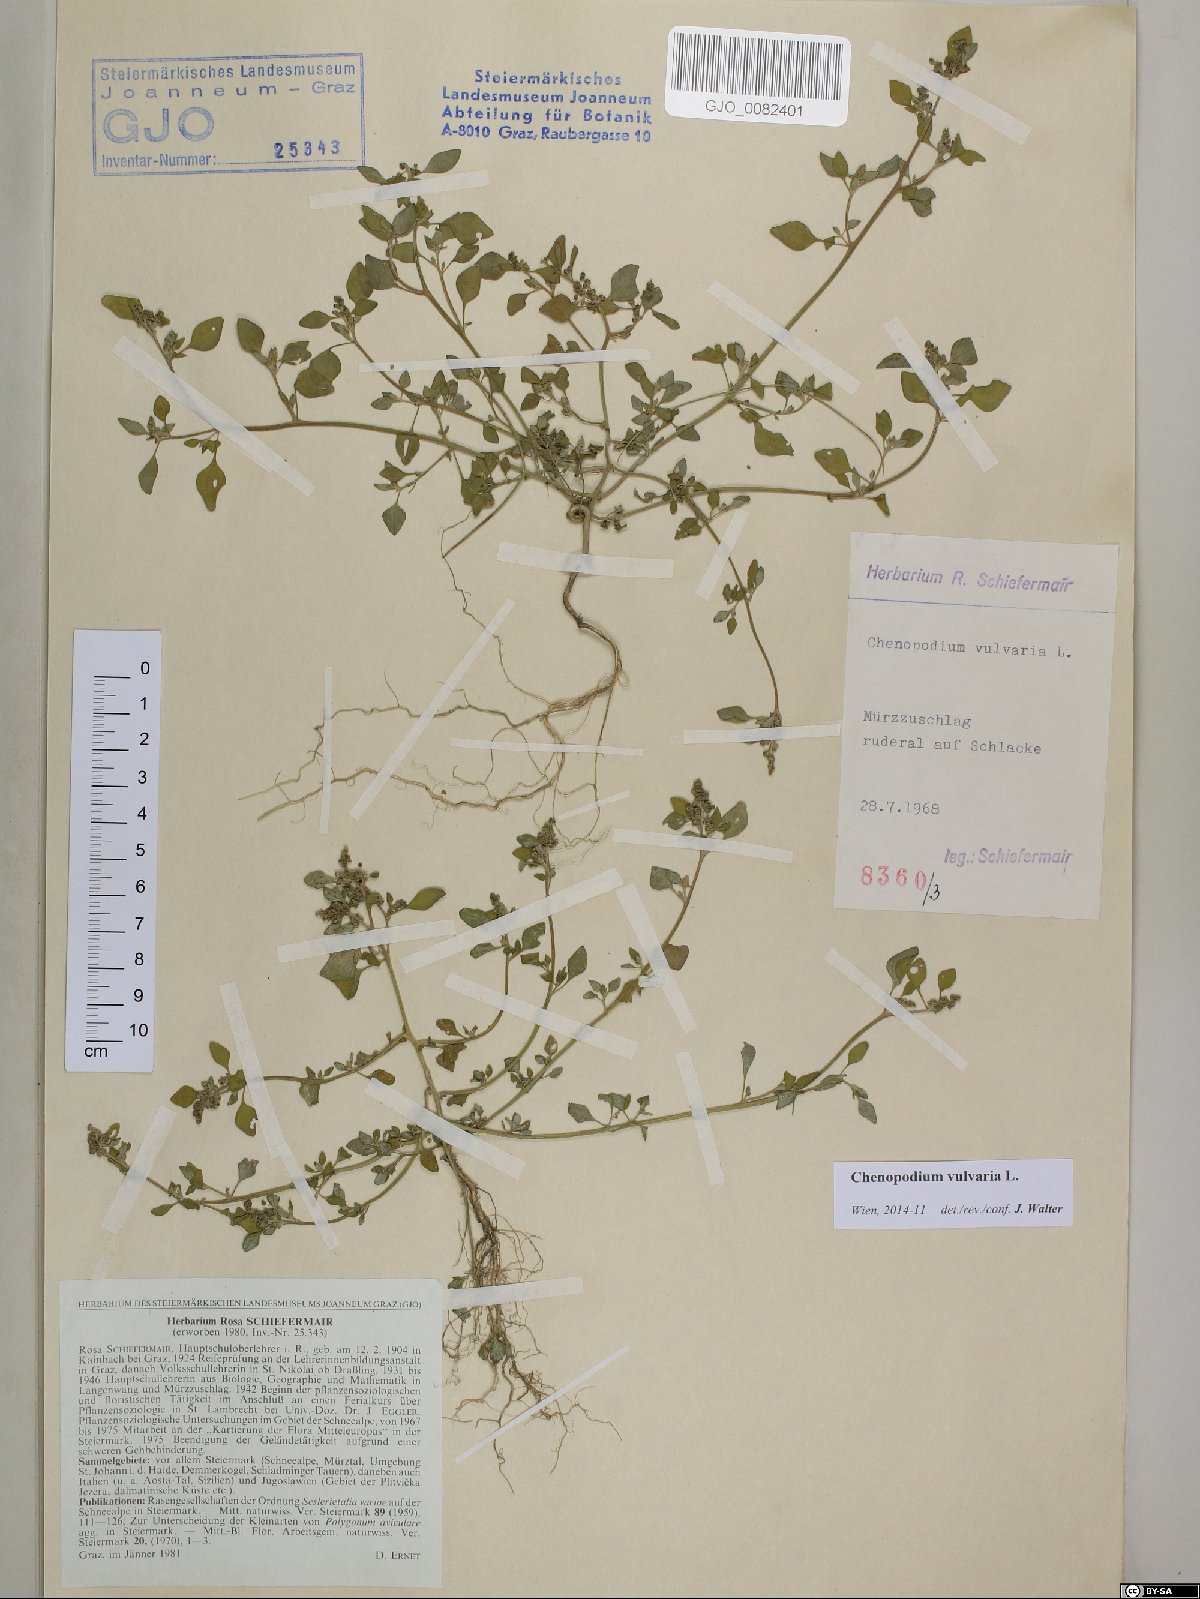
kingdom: Plantae
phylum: Tracheophyta
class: Magnoliopsida
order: Caryophyllales
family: Amaranthaceae
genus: Chenopodium
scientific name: Chenopodium vulvaria
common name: Stinking goosefoot
